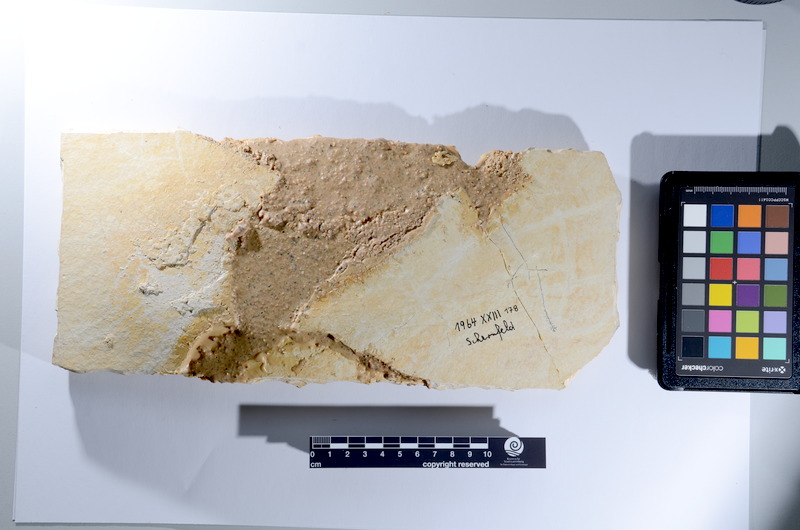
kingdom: Animalia
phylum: Chordata
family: Ankylophoridae
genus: Siemensichthys
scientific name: Siemensichthys macrocephalus
